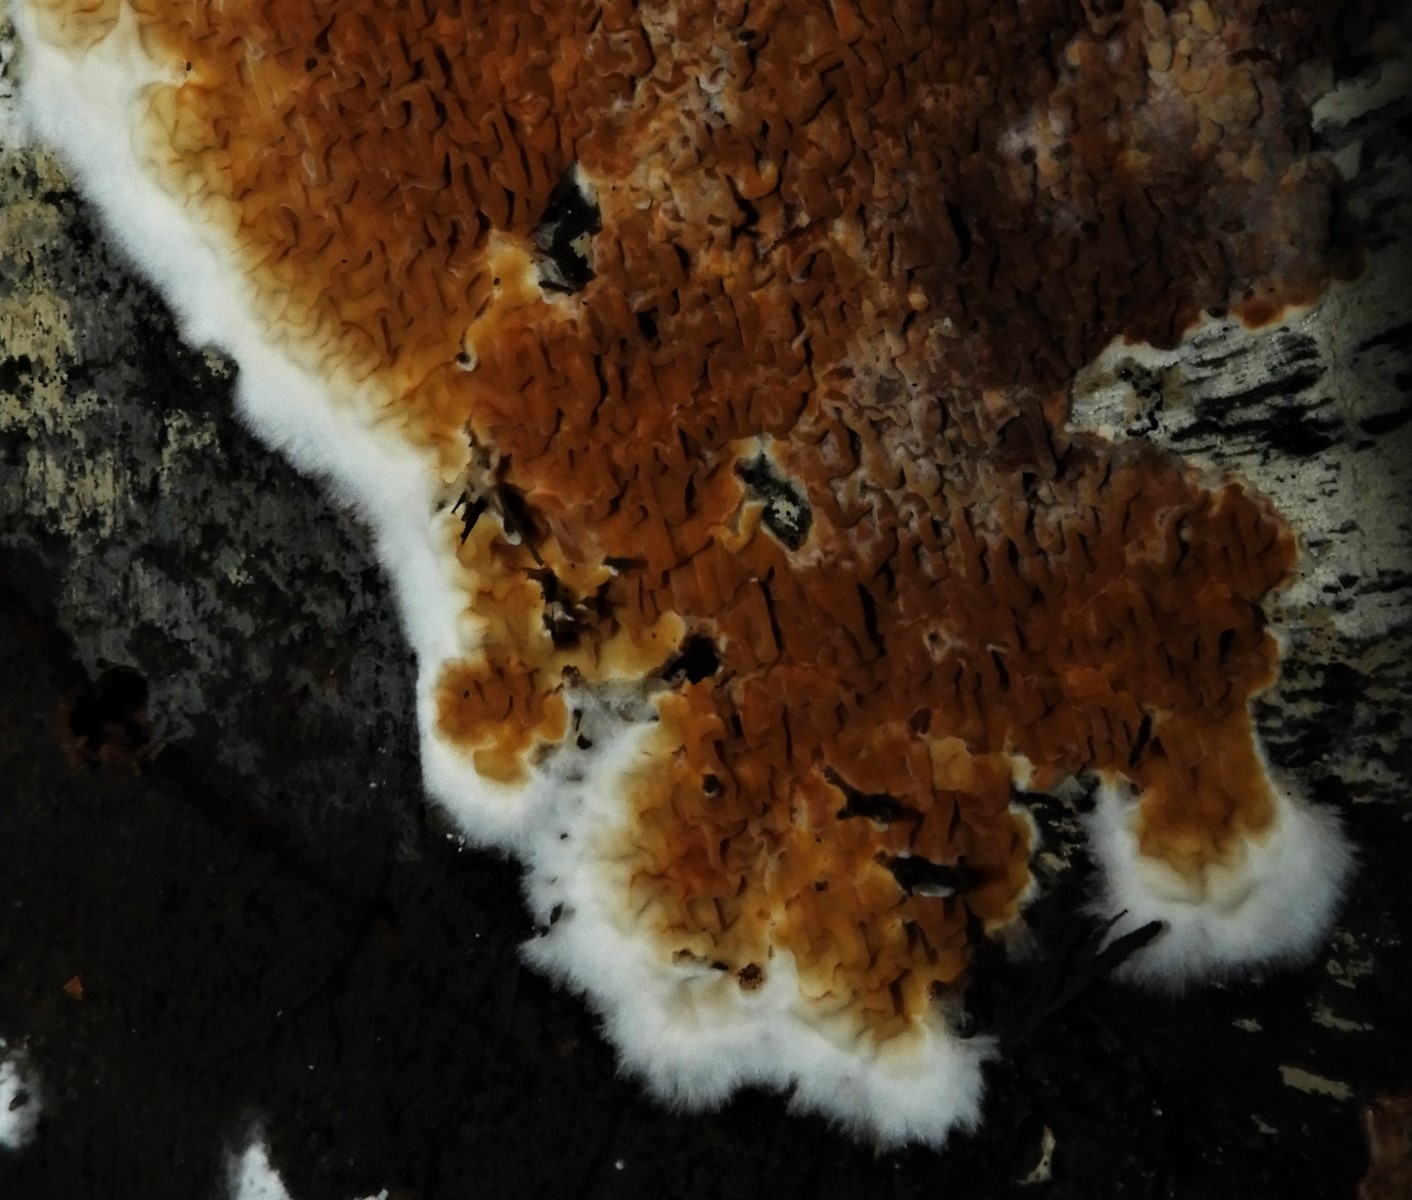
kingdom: Fungi
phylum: Basidiomycota
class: Agaricomycetes
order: Boletales
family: Serpulaceae
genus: Serpula
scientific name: Serpula himantioides
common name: tyndkødet hussvamp
